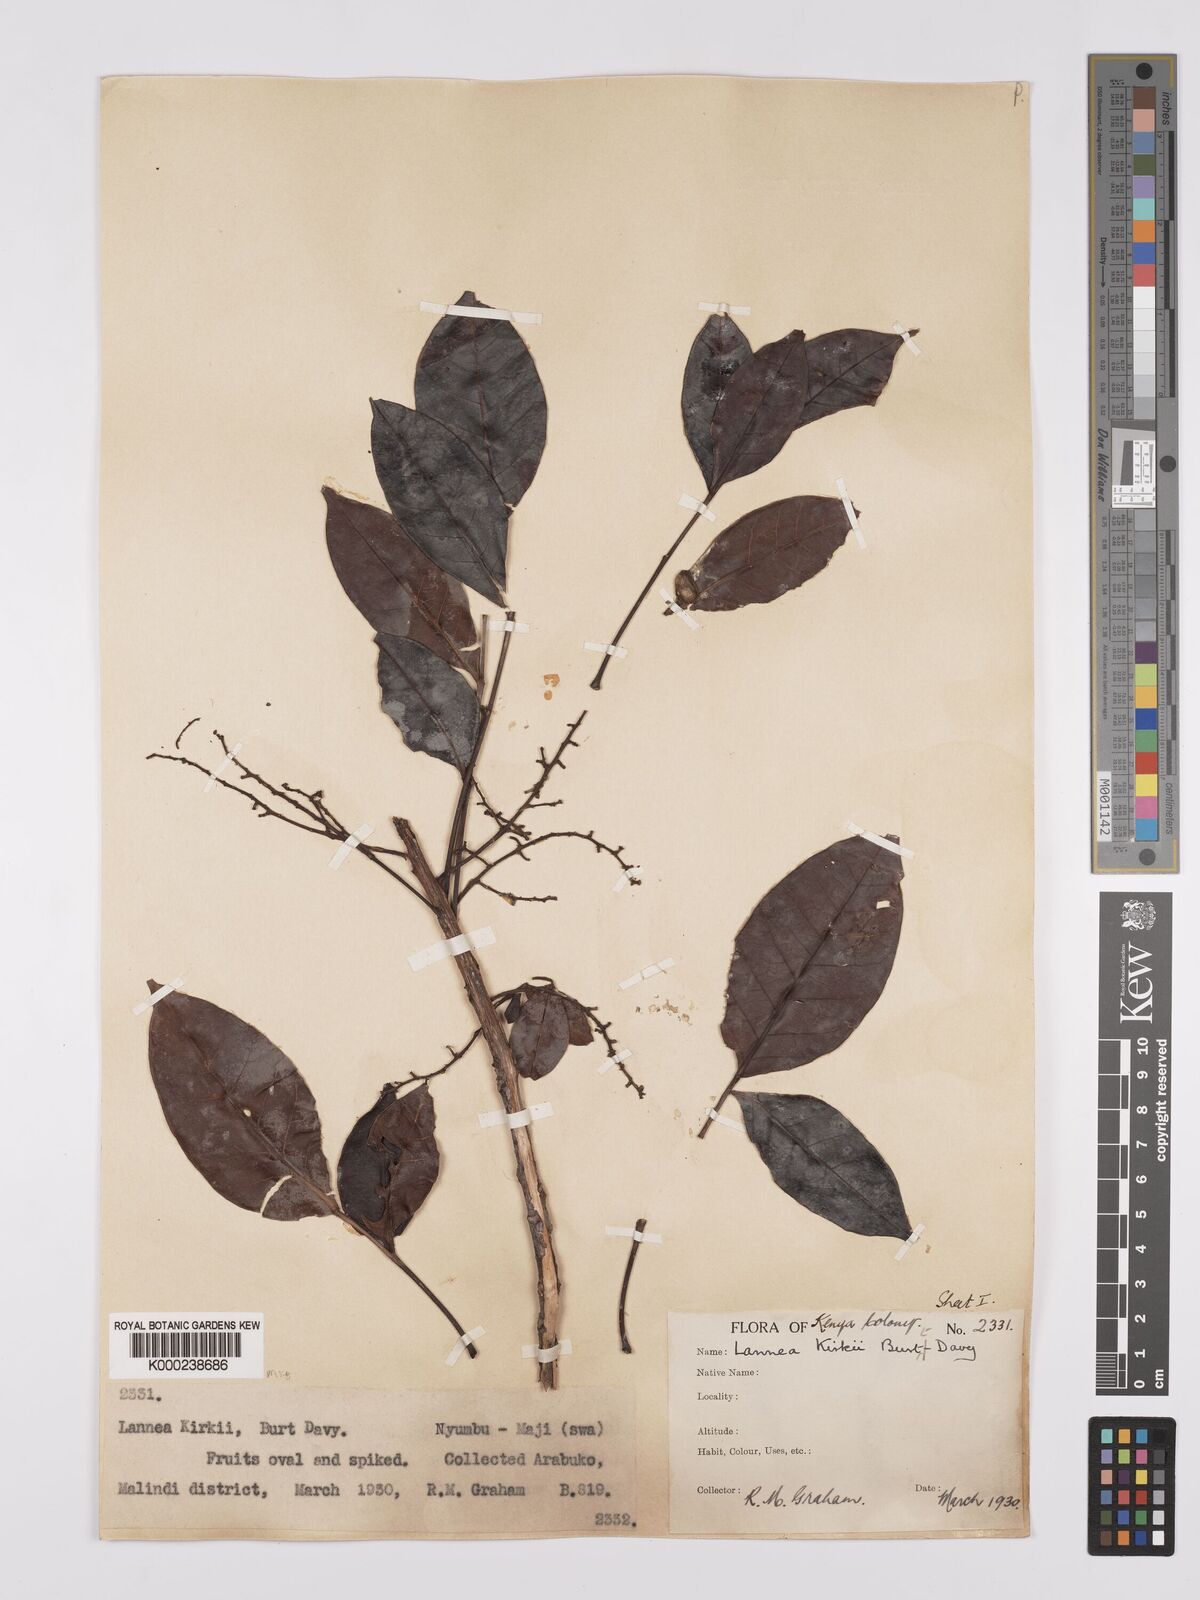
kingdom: Plantae
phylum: Tracheophyta
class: Magnoliopsida
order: Sapindales
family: Anacardiaceae
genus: Lannea
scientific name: Lannea schweinfurthii
